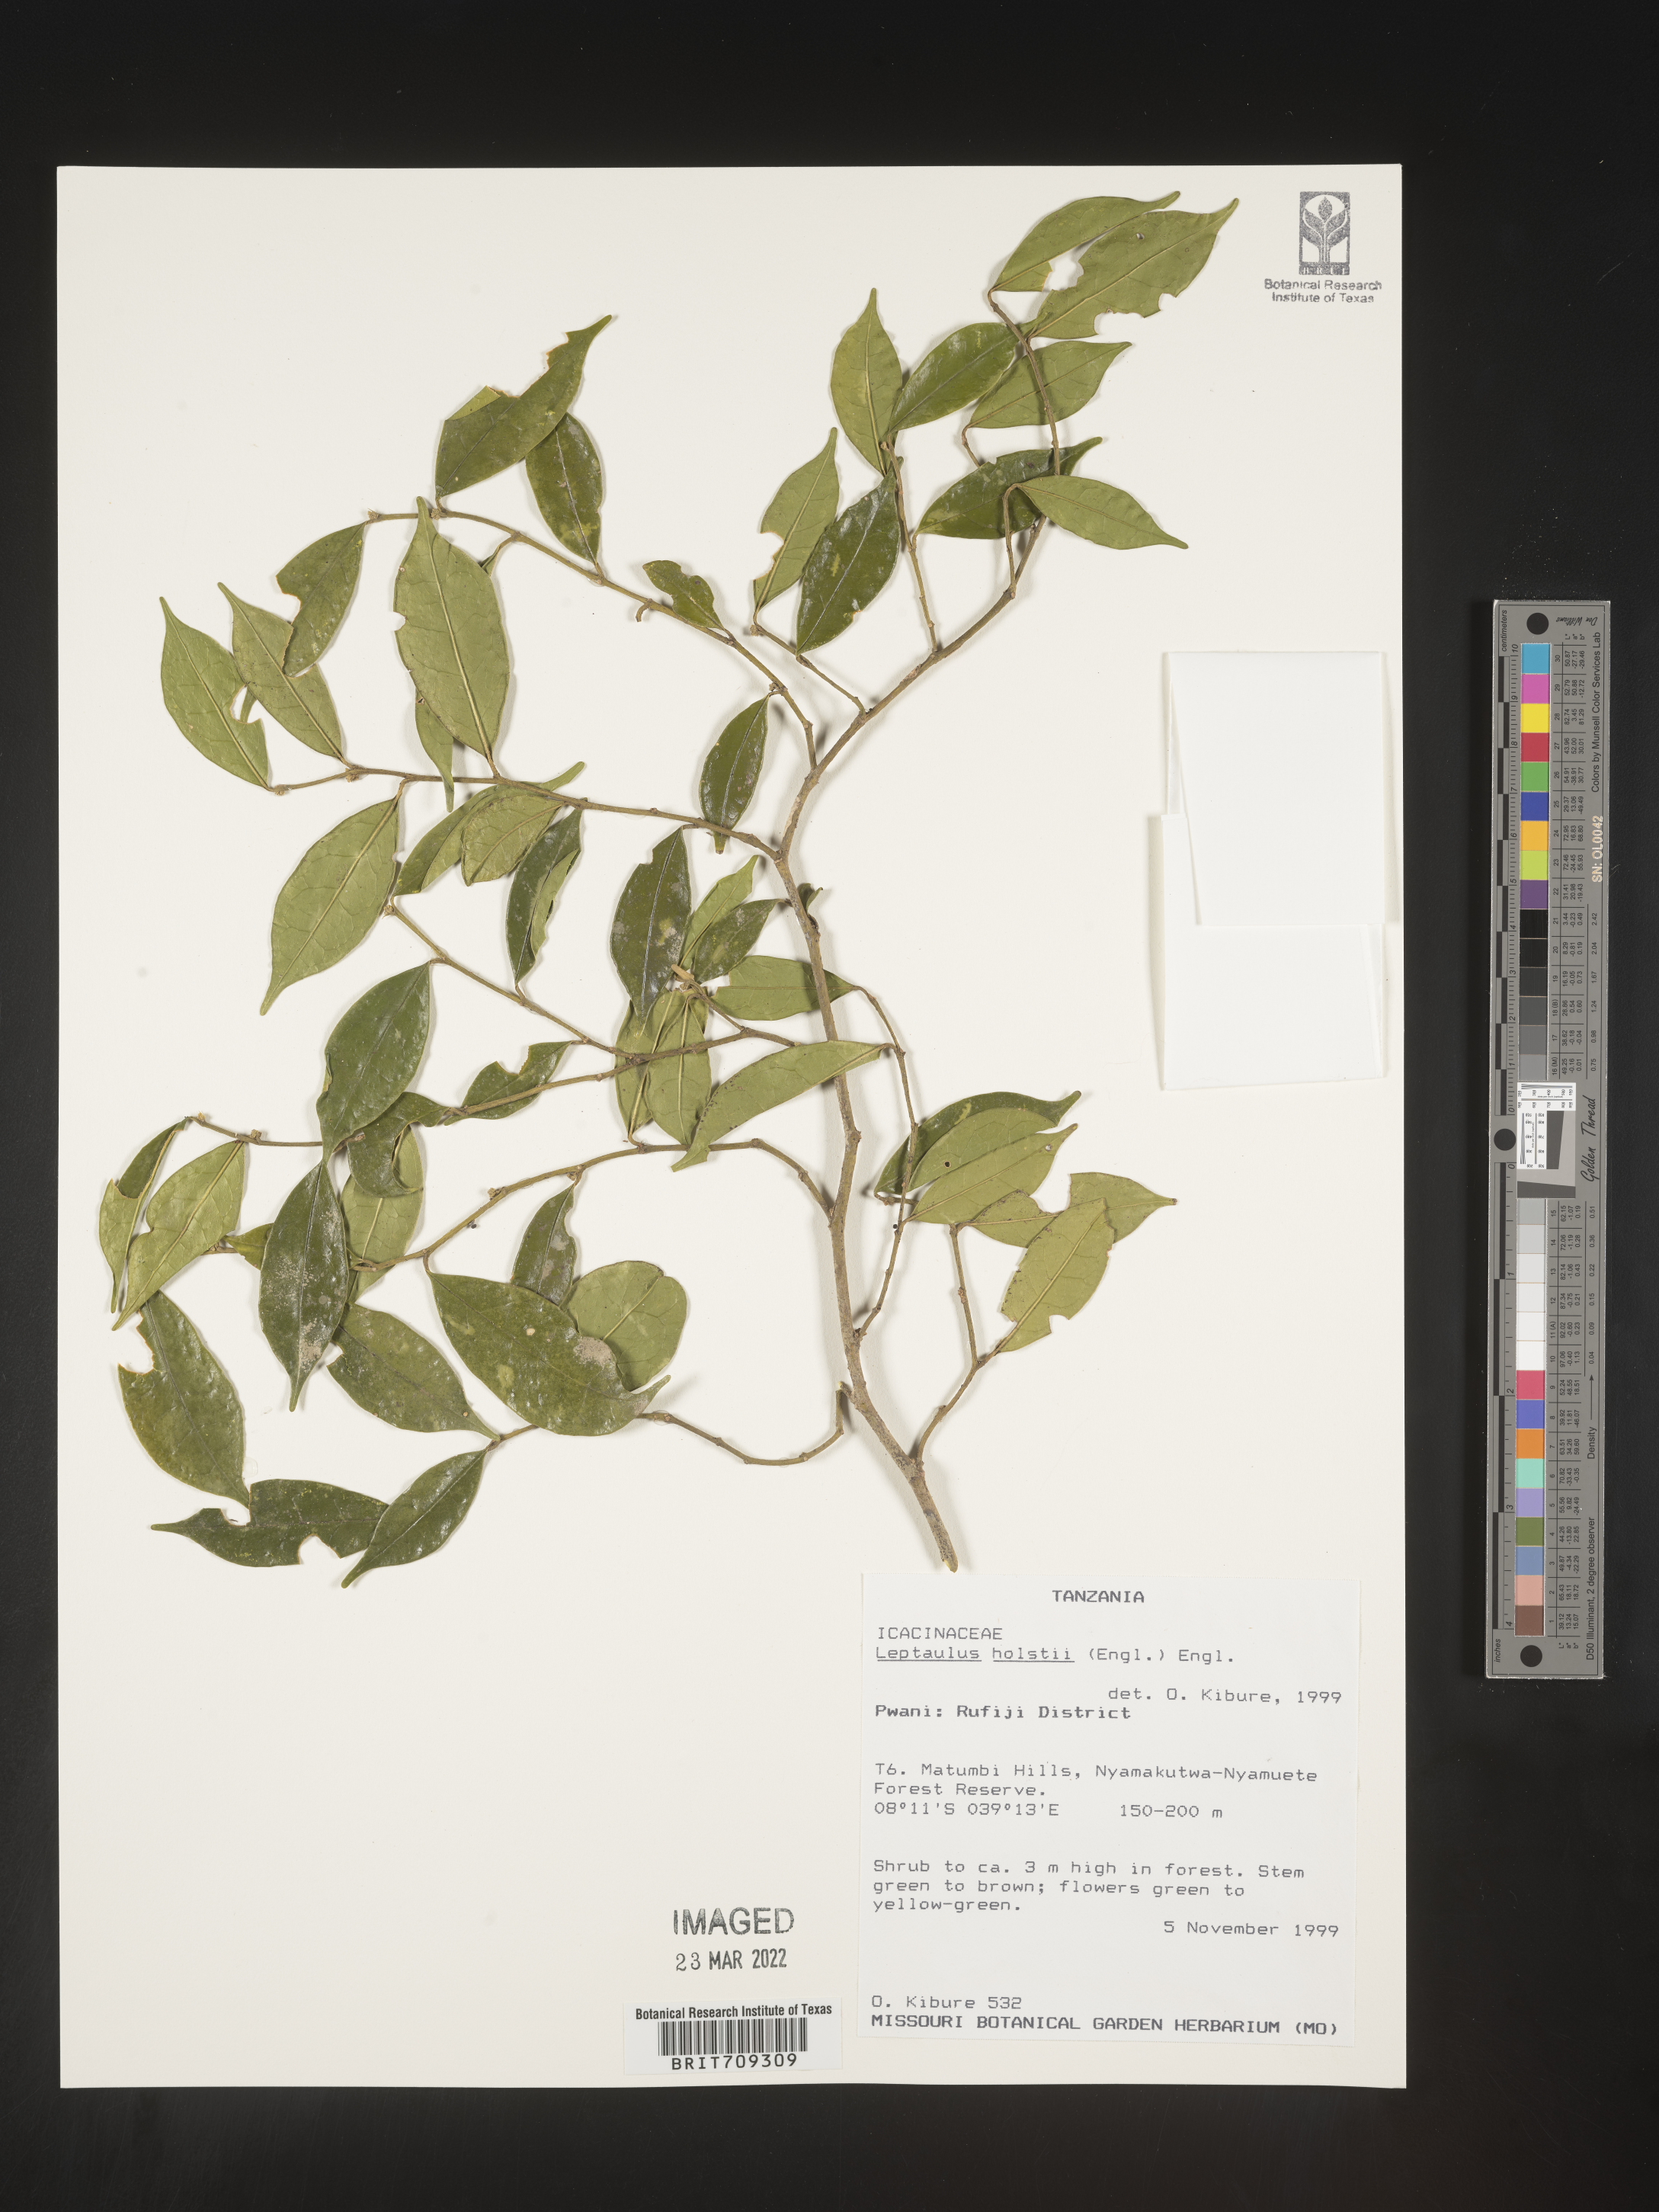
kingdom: Plantae
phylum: Tracheophyta
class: Magnoliopsida
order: Cardiopteridales
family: Cardiopteridaceae
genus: Leptaulus
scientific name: Leptaulus
